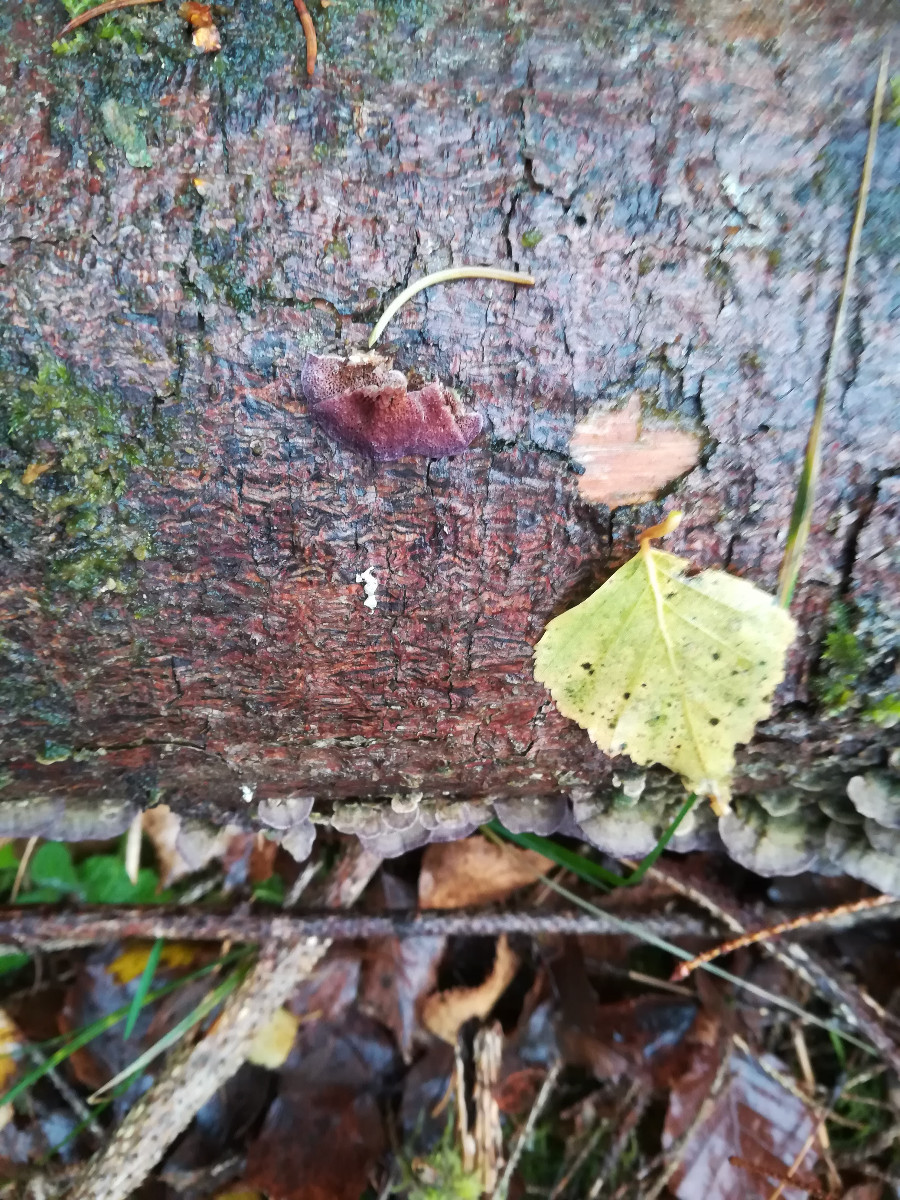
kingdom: Fungi
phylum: Basidiomycota
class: Agaricomycetes
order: Hymenochaetales
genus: Trichaptum
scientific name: Trichaptum abietinum
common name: almindelig violporesvamp
